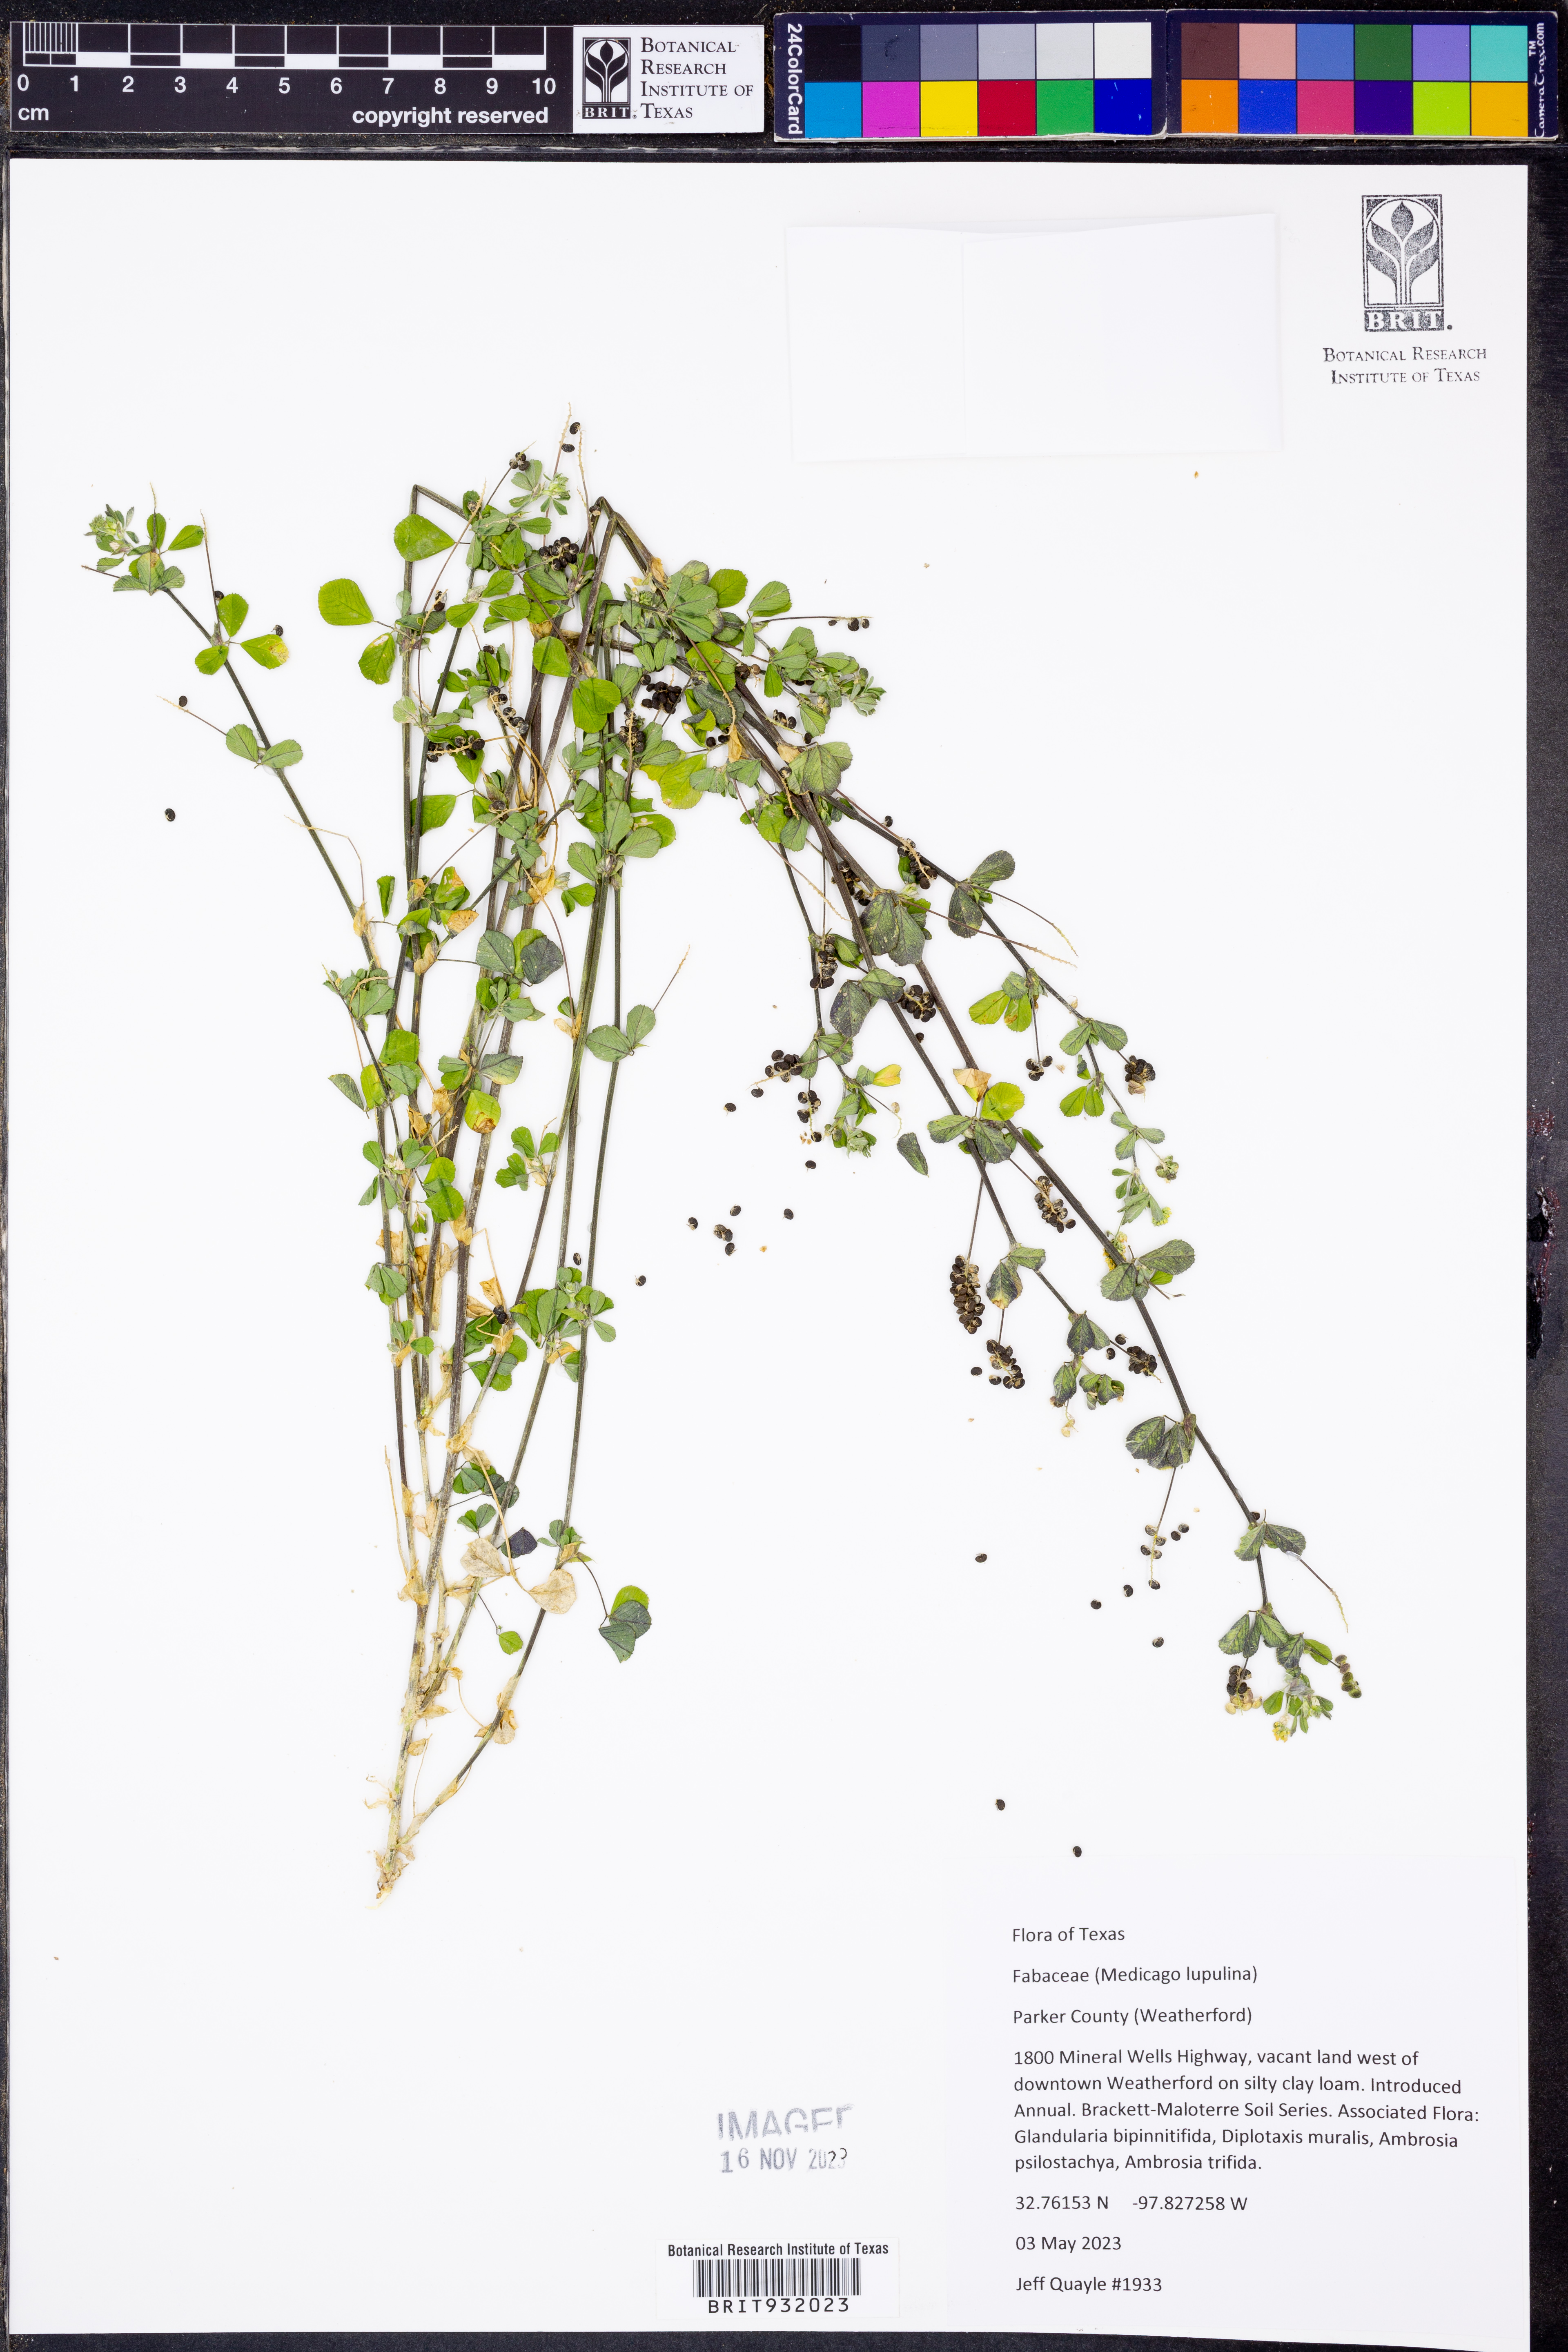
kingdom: Plantae
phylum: Tracheophyta
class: Magnoliopsida
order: Fabales
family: Fabaceae
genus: Medicago
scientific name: Medicago lupulina
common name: Black medick
